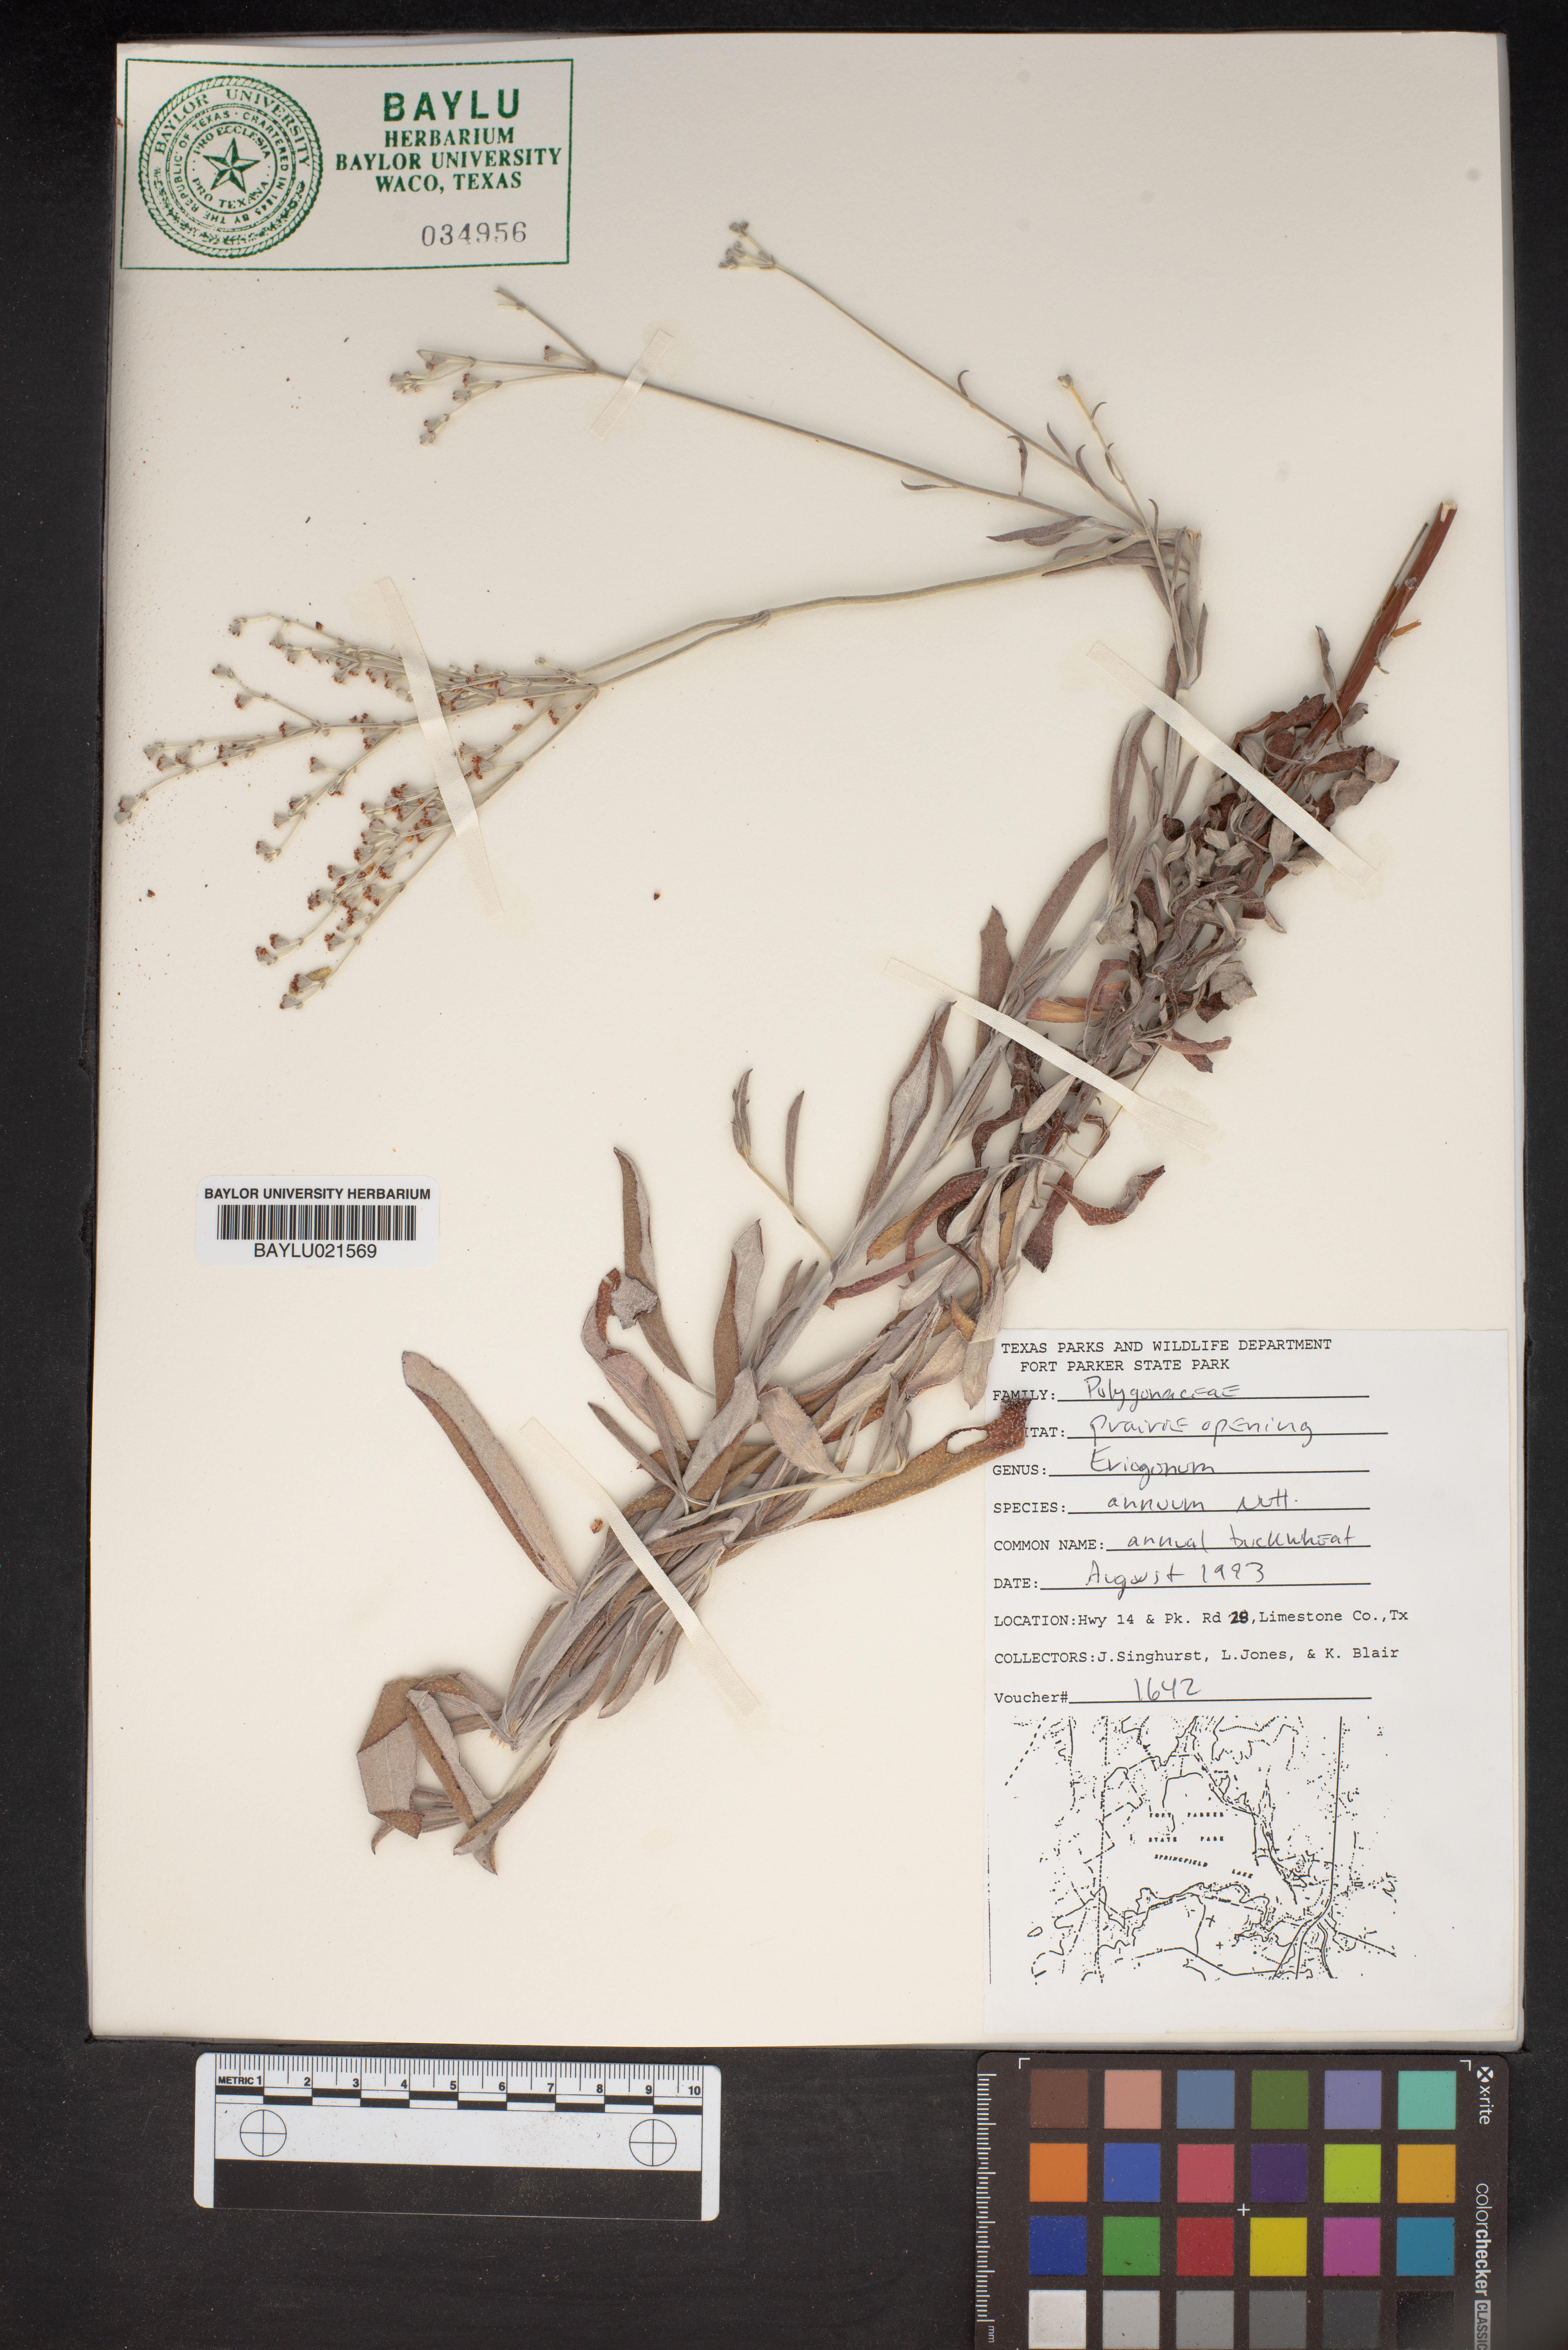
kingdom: Plantae
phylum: Tracheophyta
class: Magnoliopsida
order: Caryophyllales
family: Polygonaceae
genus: Eriogonum
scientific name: Eriogonum annuum
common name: Annual wild buckwheat
